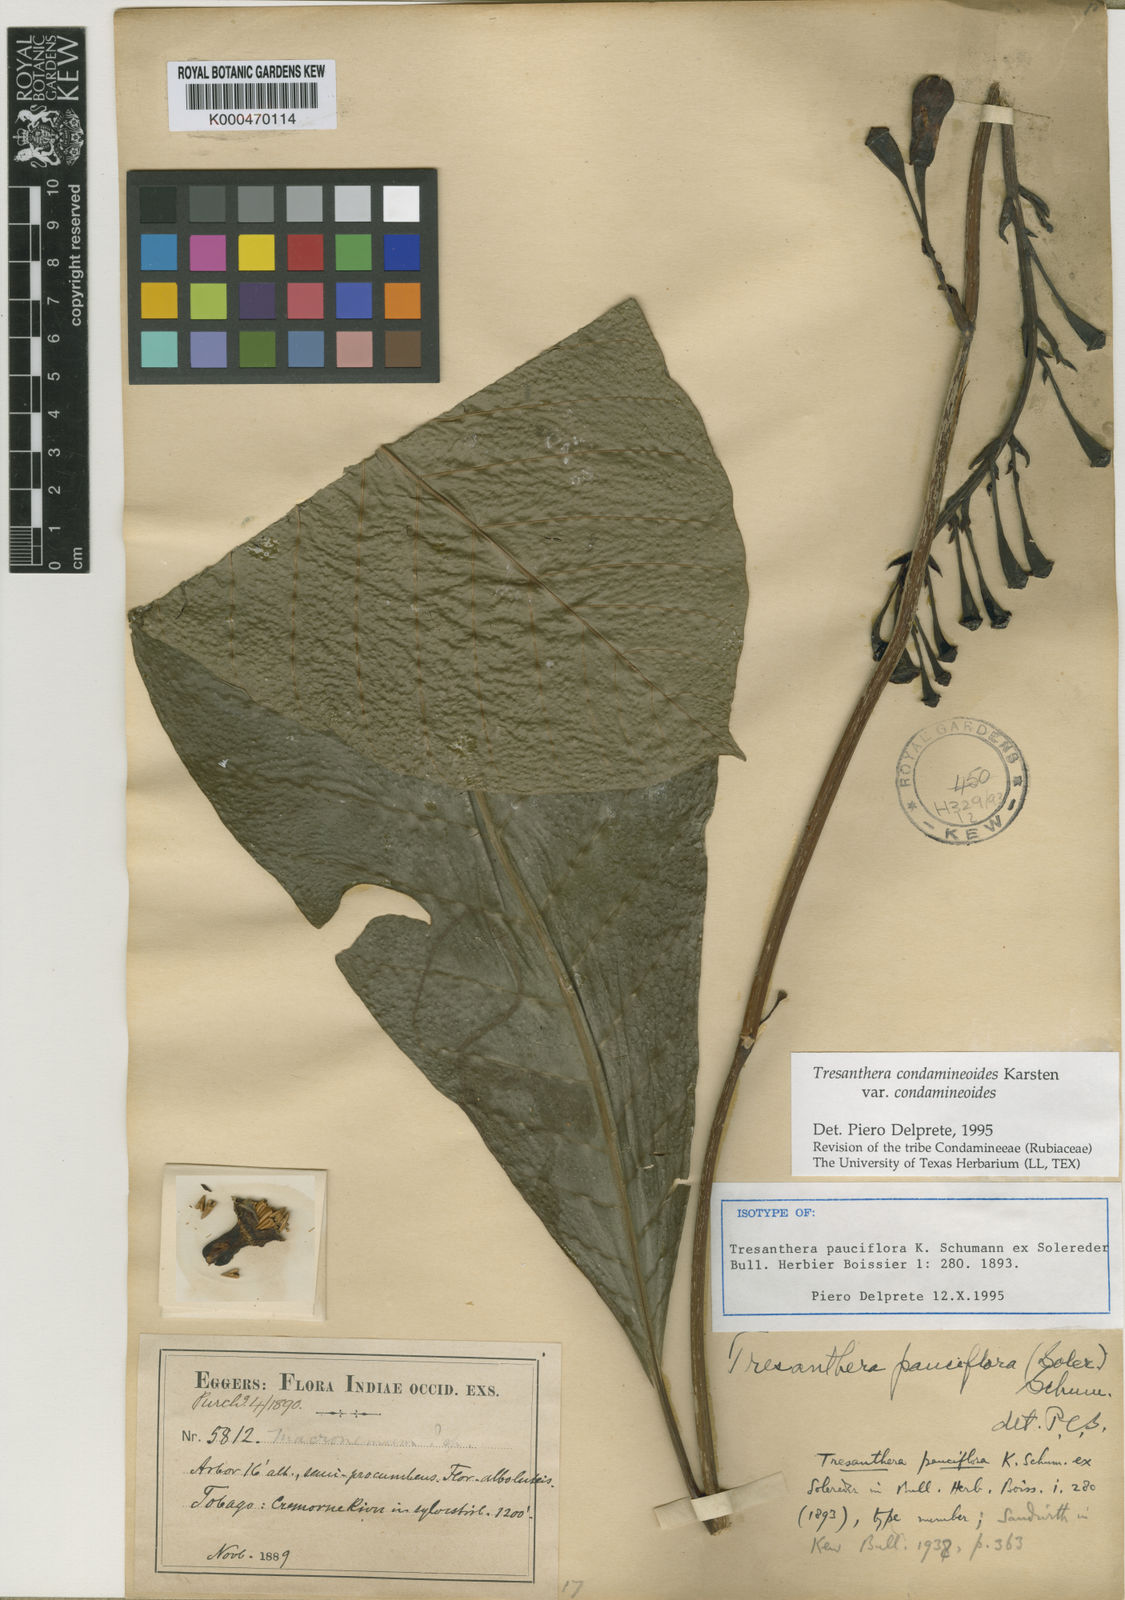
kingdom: Plantae
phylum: Tracheophyta
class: Magnoliopsida
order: Gentianales
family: Rubiaceae
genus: Rustia
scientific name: Rustia condamineoides
